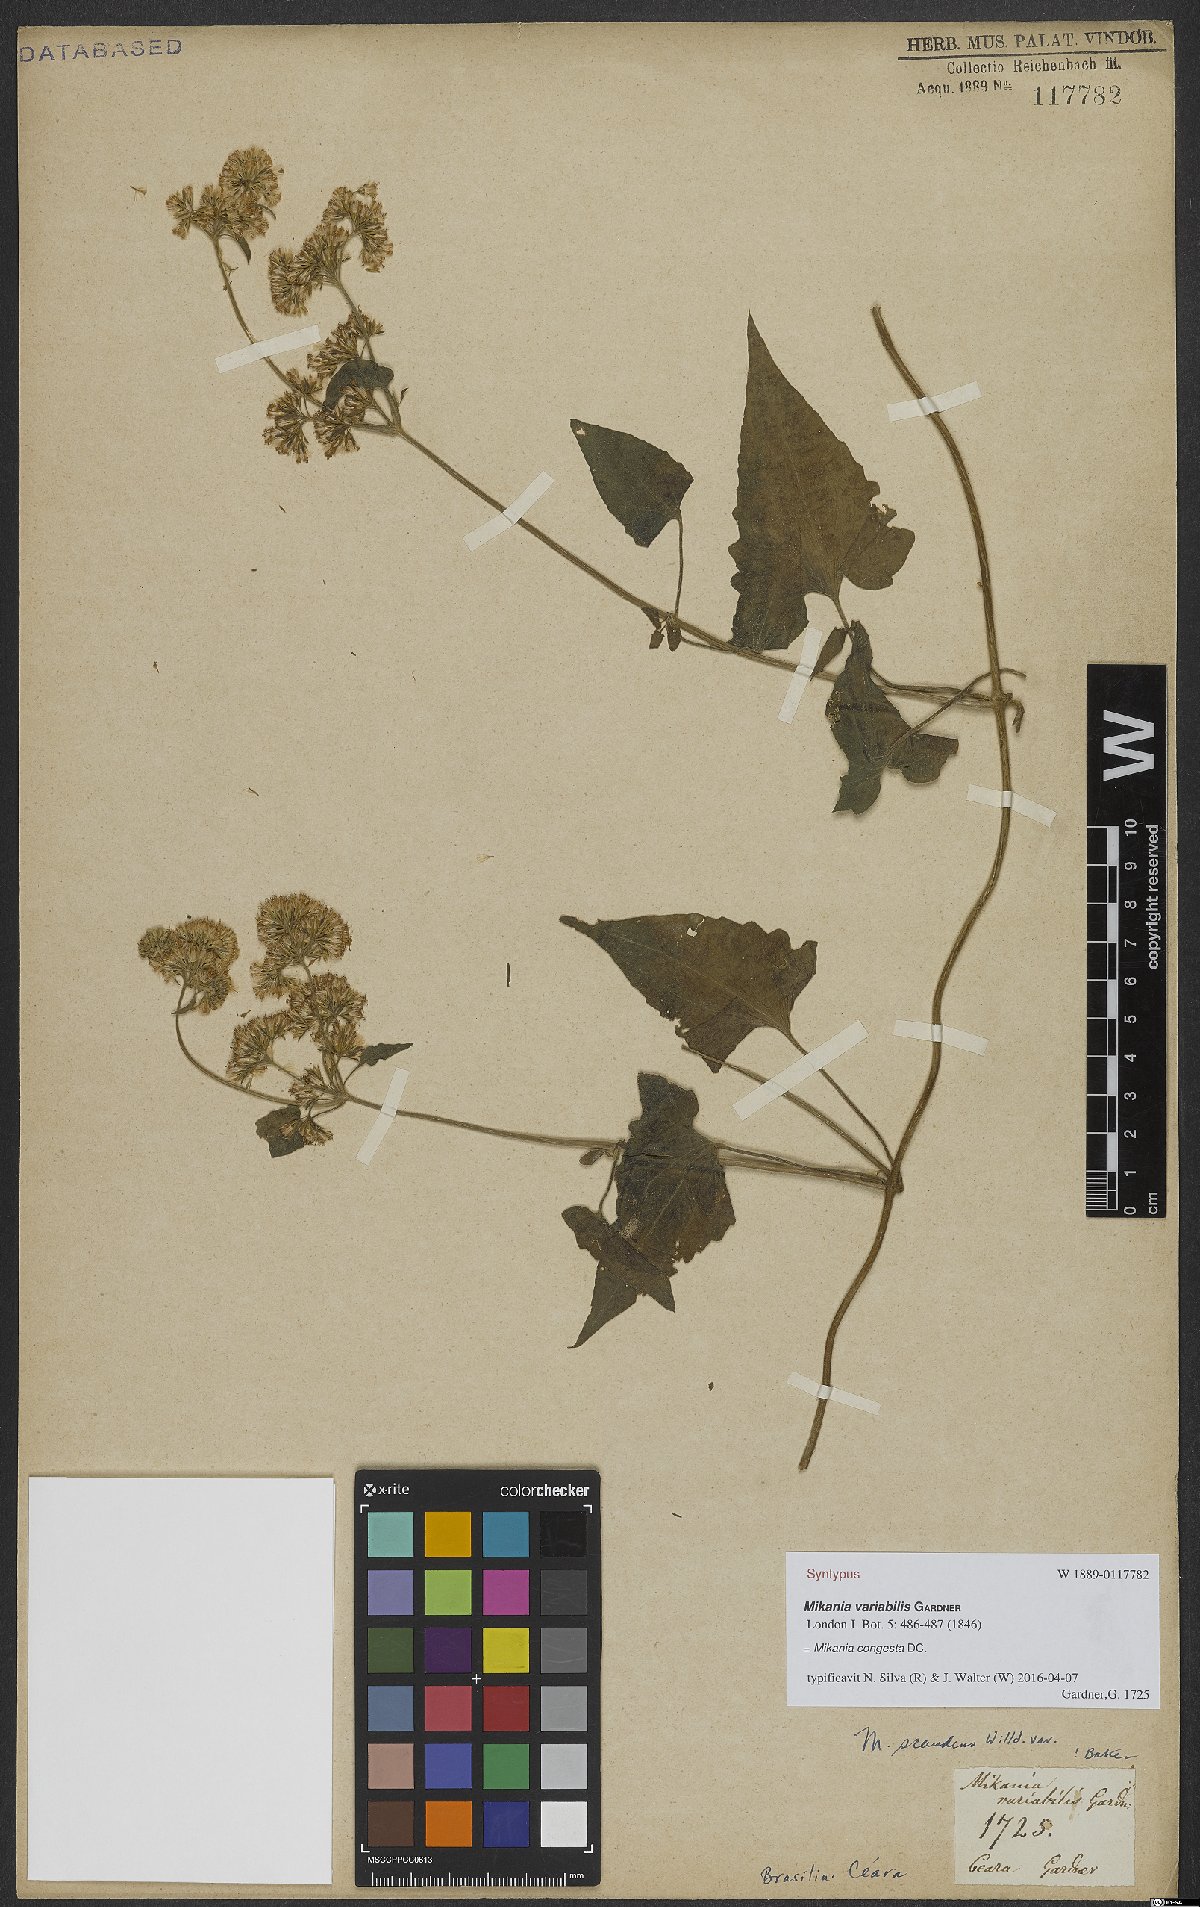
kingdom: Plantae
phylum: Tracheophyta
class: Magnoliopsida
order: Asterales
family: Asteraceae
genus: Mikania
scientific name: Mikania congesta
